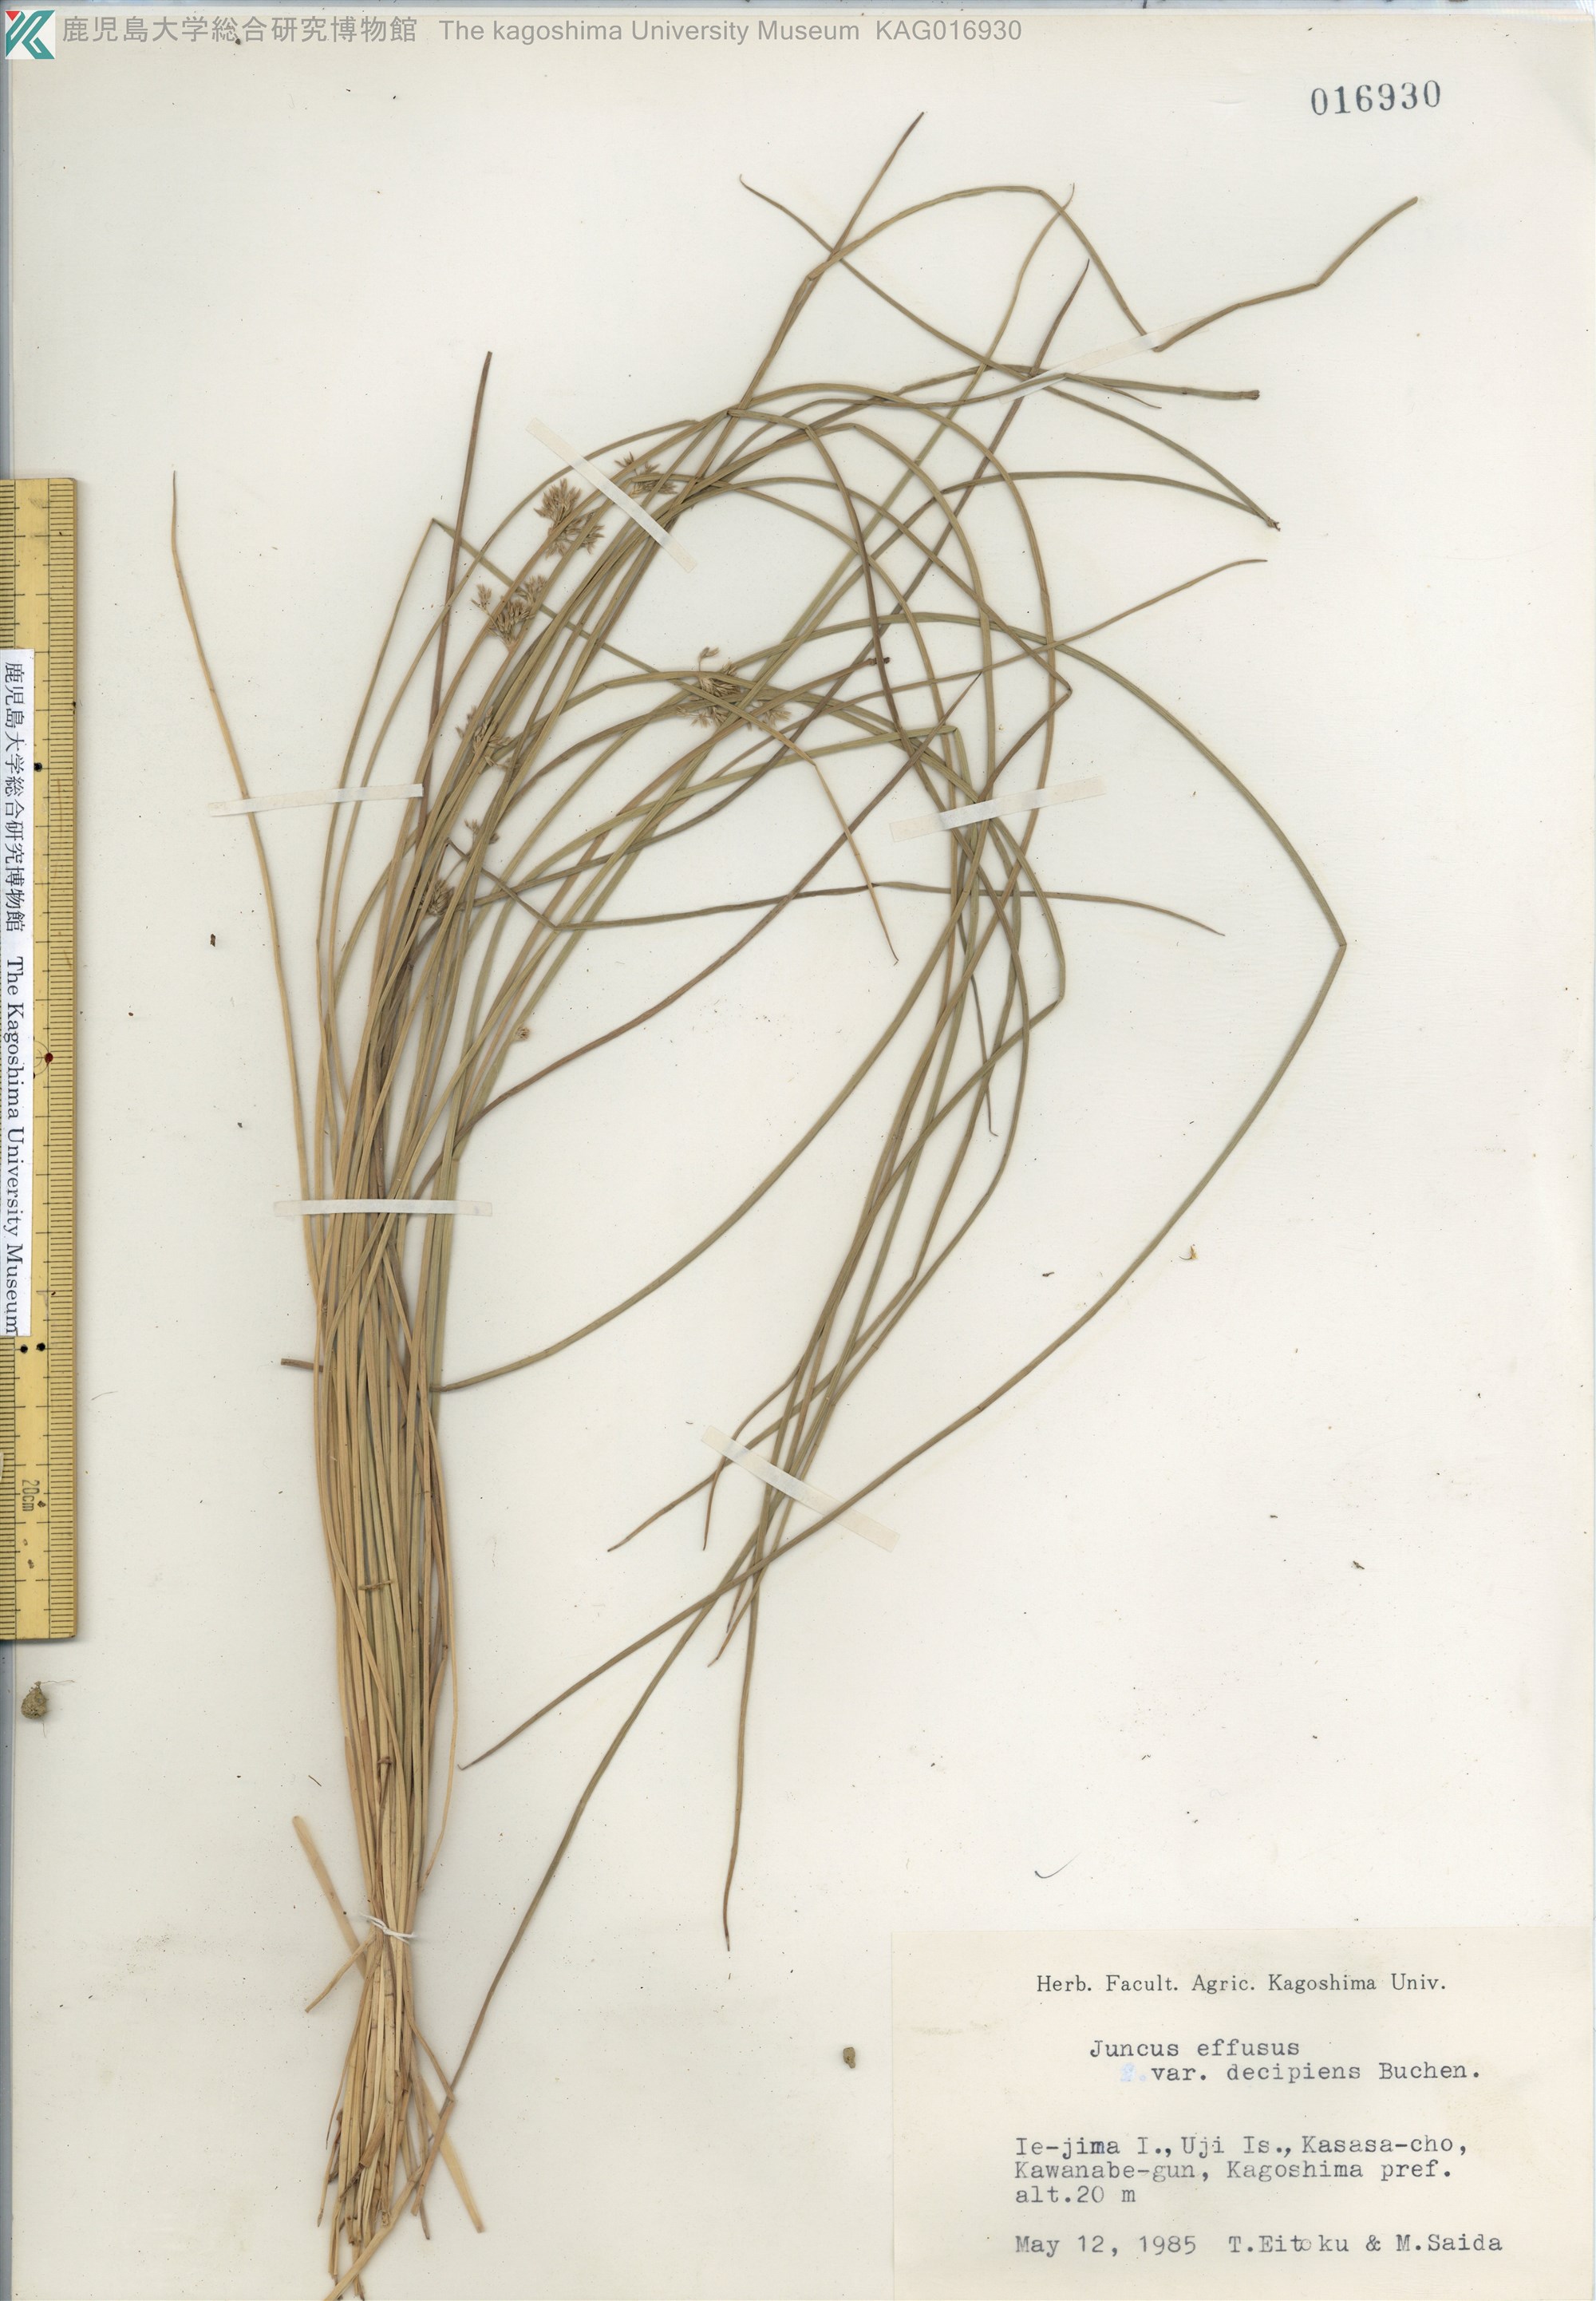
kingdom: Plantae
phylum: Tracheophyta
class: Liliopsida
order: Poales
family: Juncaceae
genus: Juncus
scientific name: Juncus decipiens
